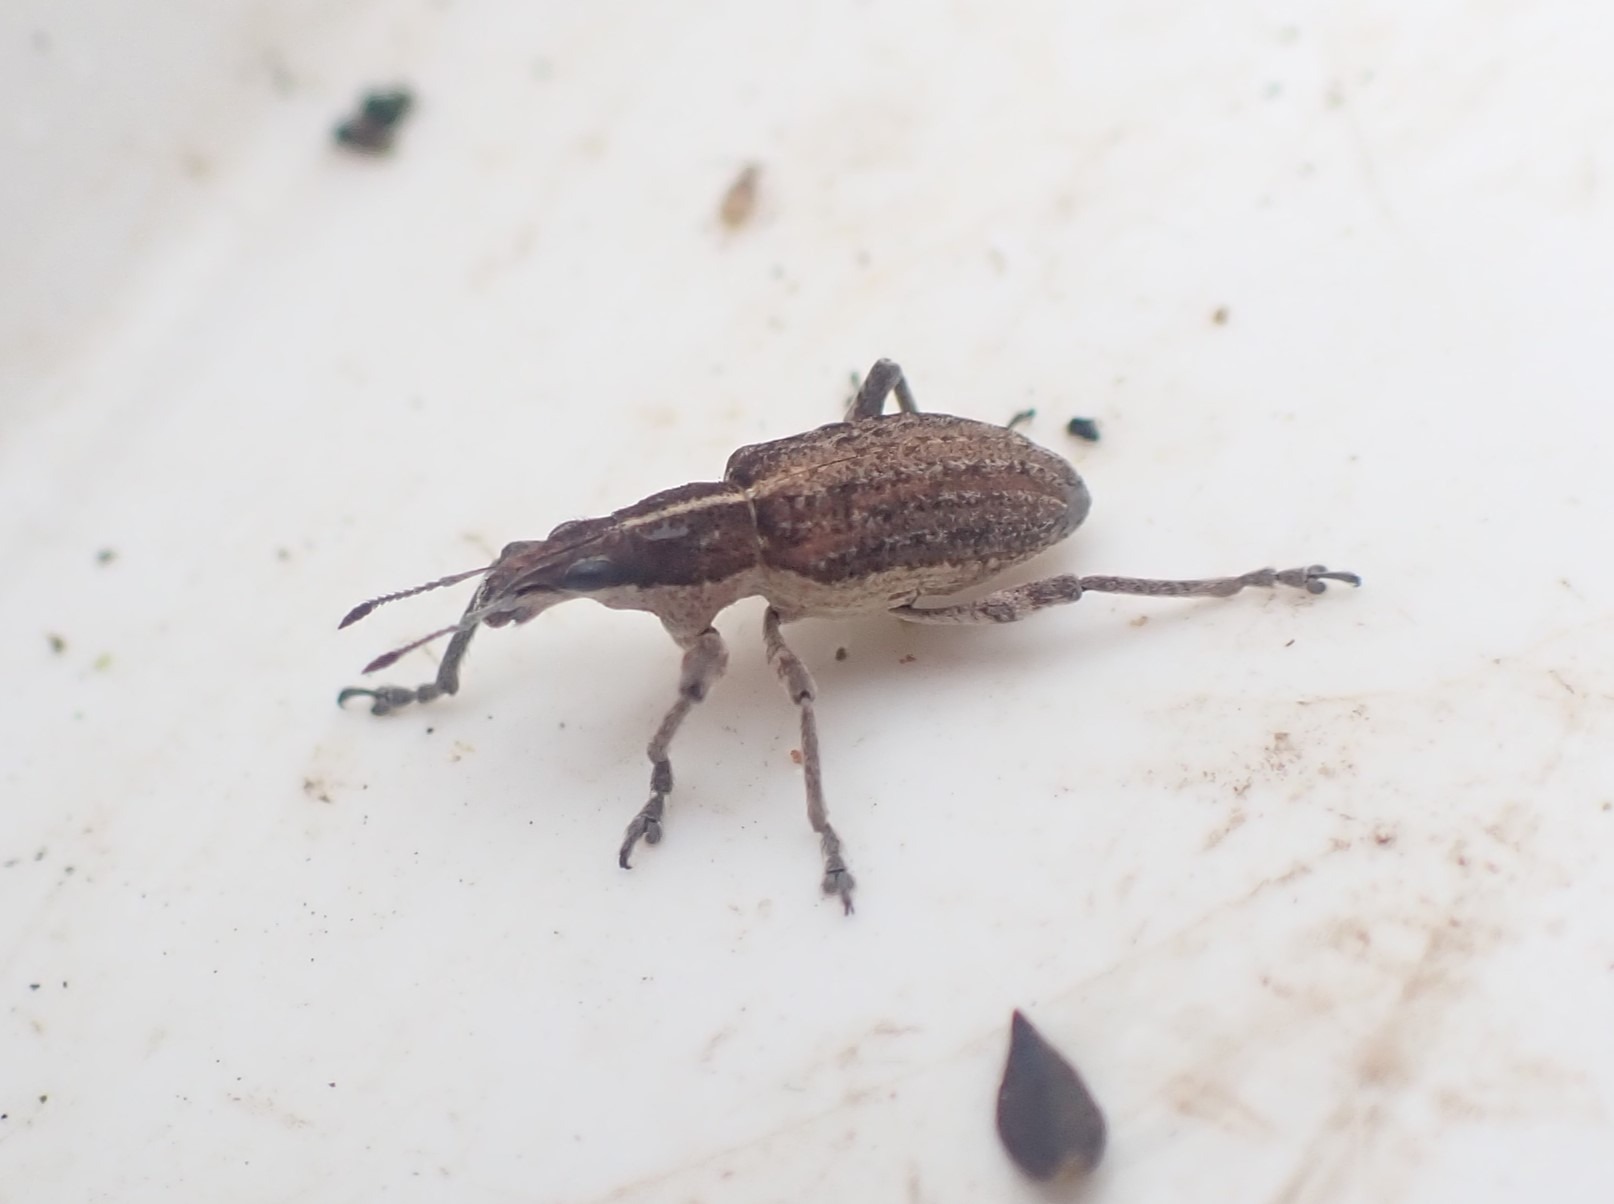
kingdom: Animalia
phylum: Arthropoda
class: Insecta
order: Coleoptera
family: Curculionidae
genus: Charagmus
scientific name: Charagmus gressorius
